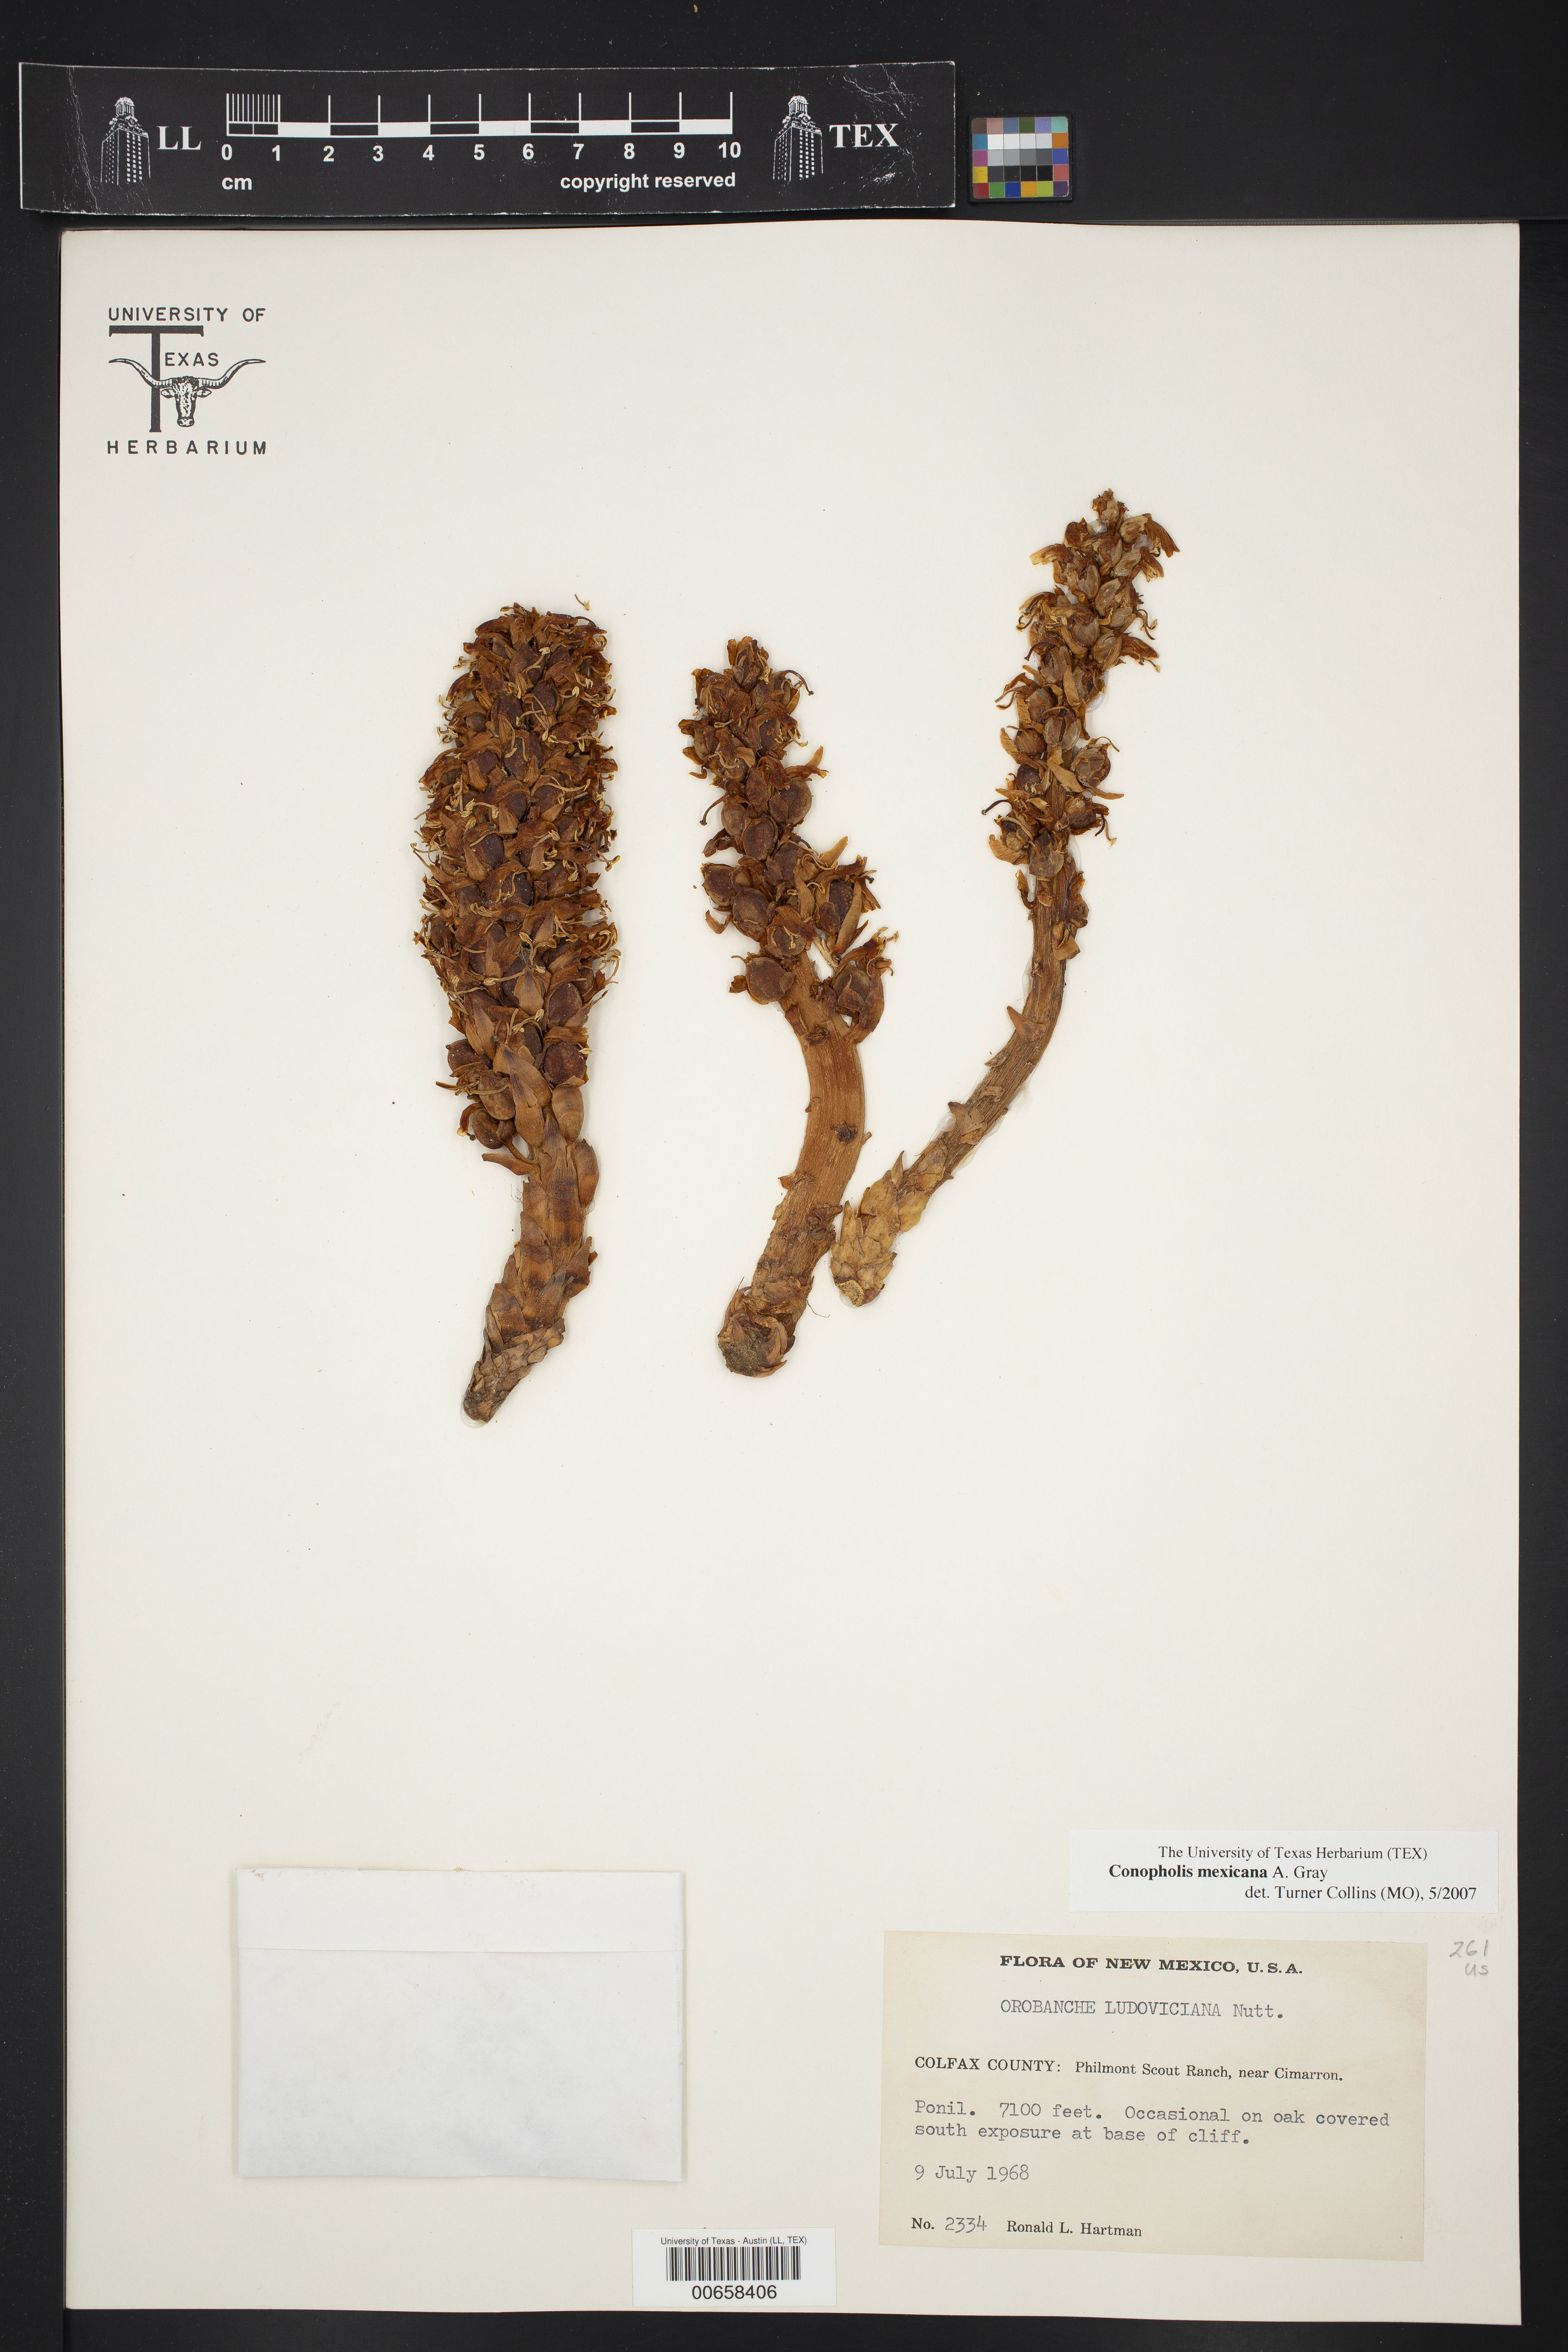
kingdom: Plantae
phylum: Tracheophyta
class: Magnoliopsida
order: Lamiales
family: Orobanchaceae
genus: Conopholis
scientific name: Conopholis alpina
